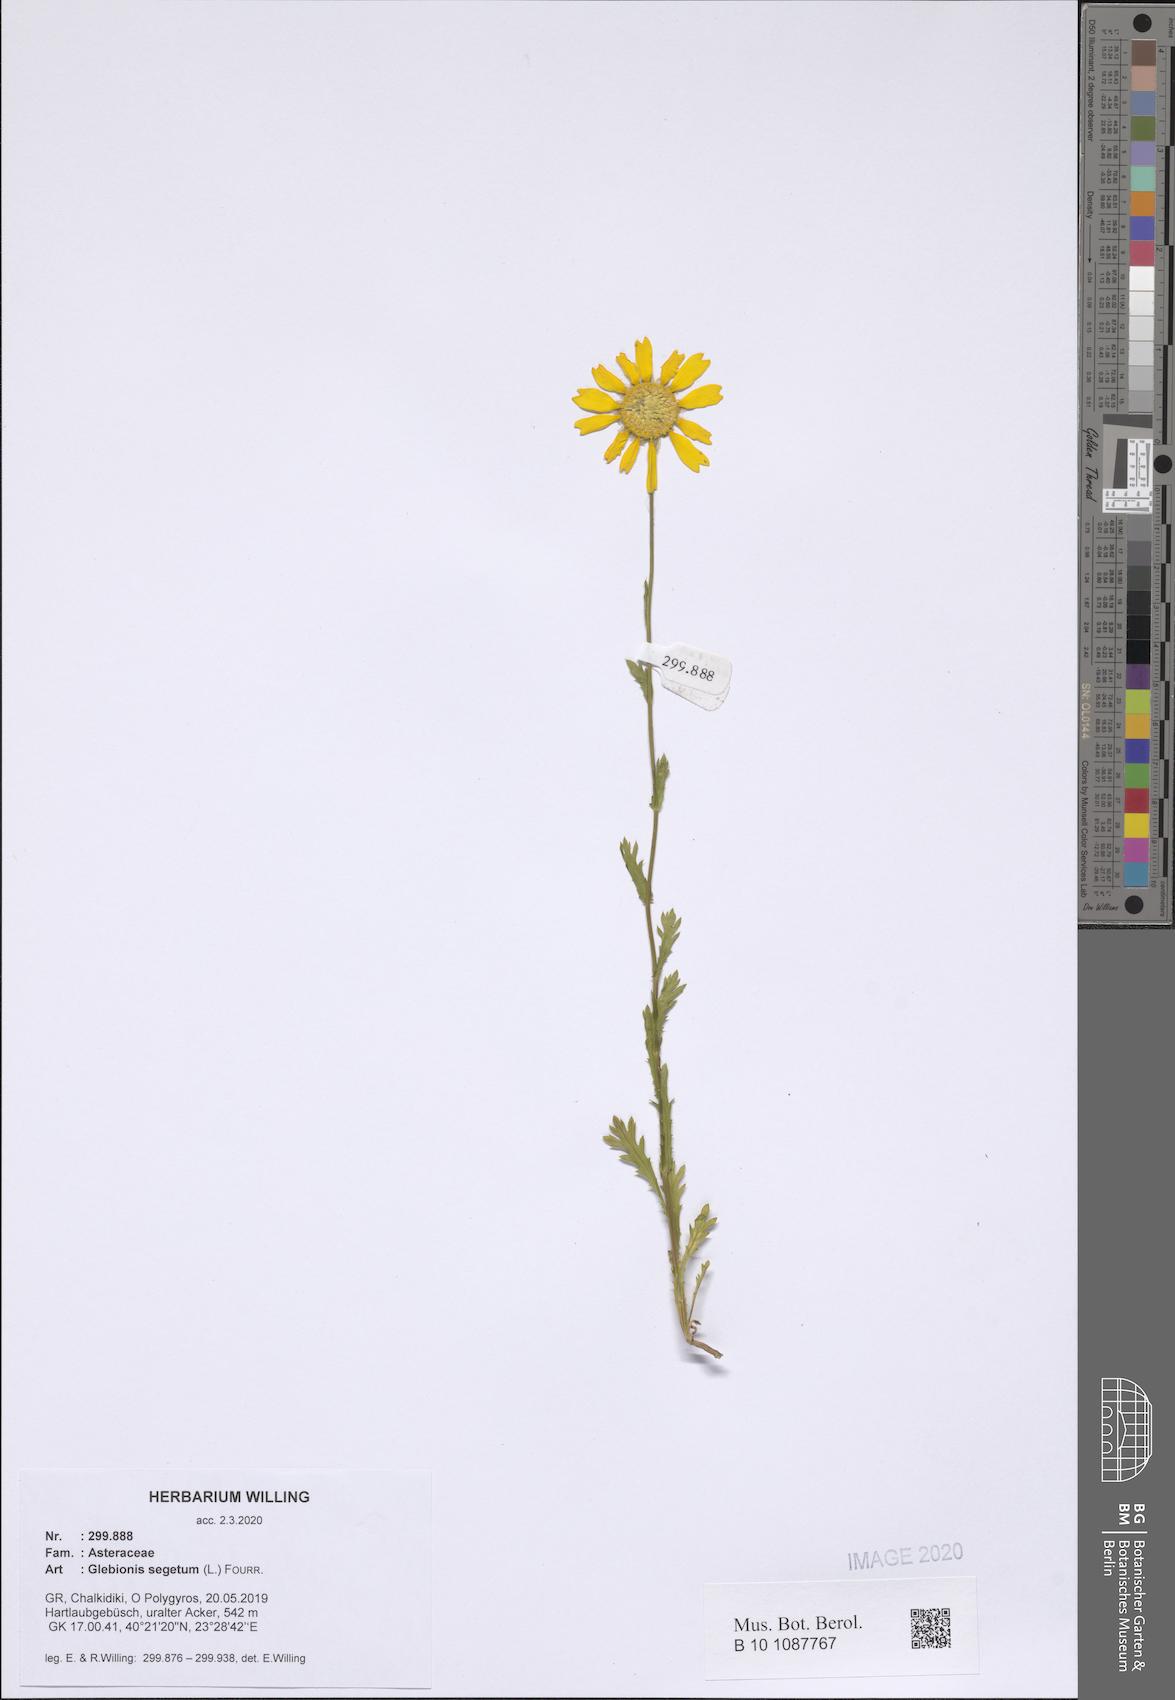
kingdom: Plantae
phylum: Tracheophyta
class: Magnoliopsida
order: Asterales
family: Asteraceae
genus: Glebionis
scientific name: Glebionis segetum
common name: Corndaisy
